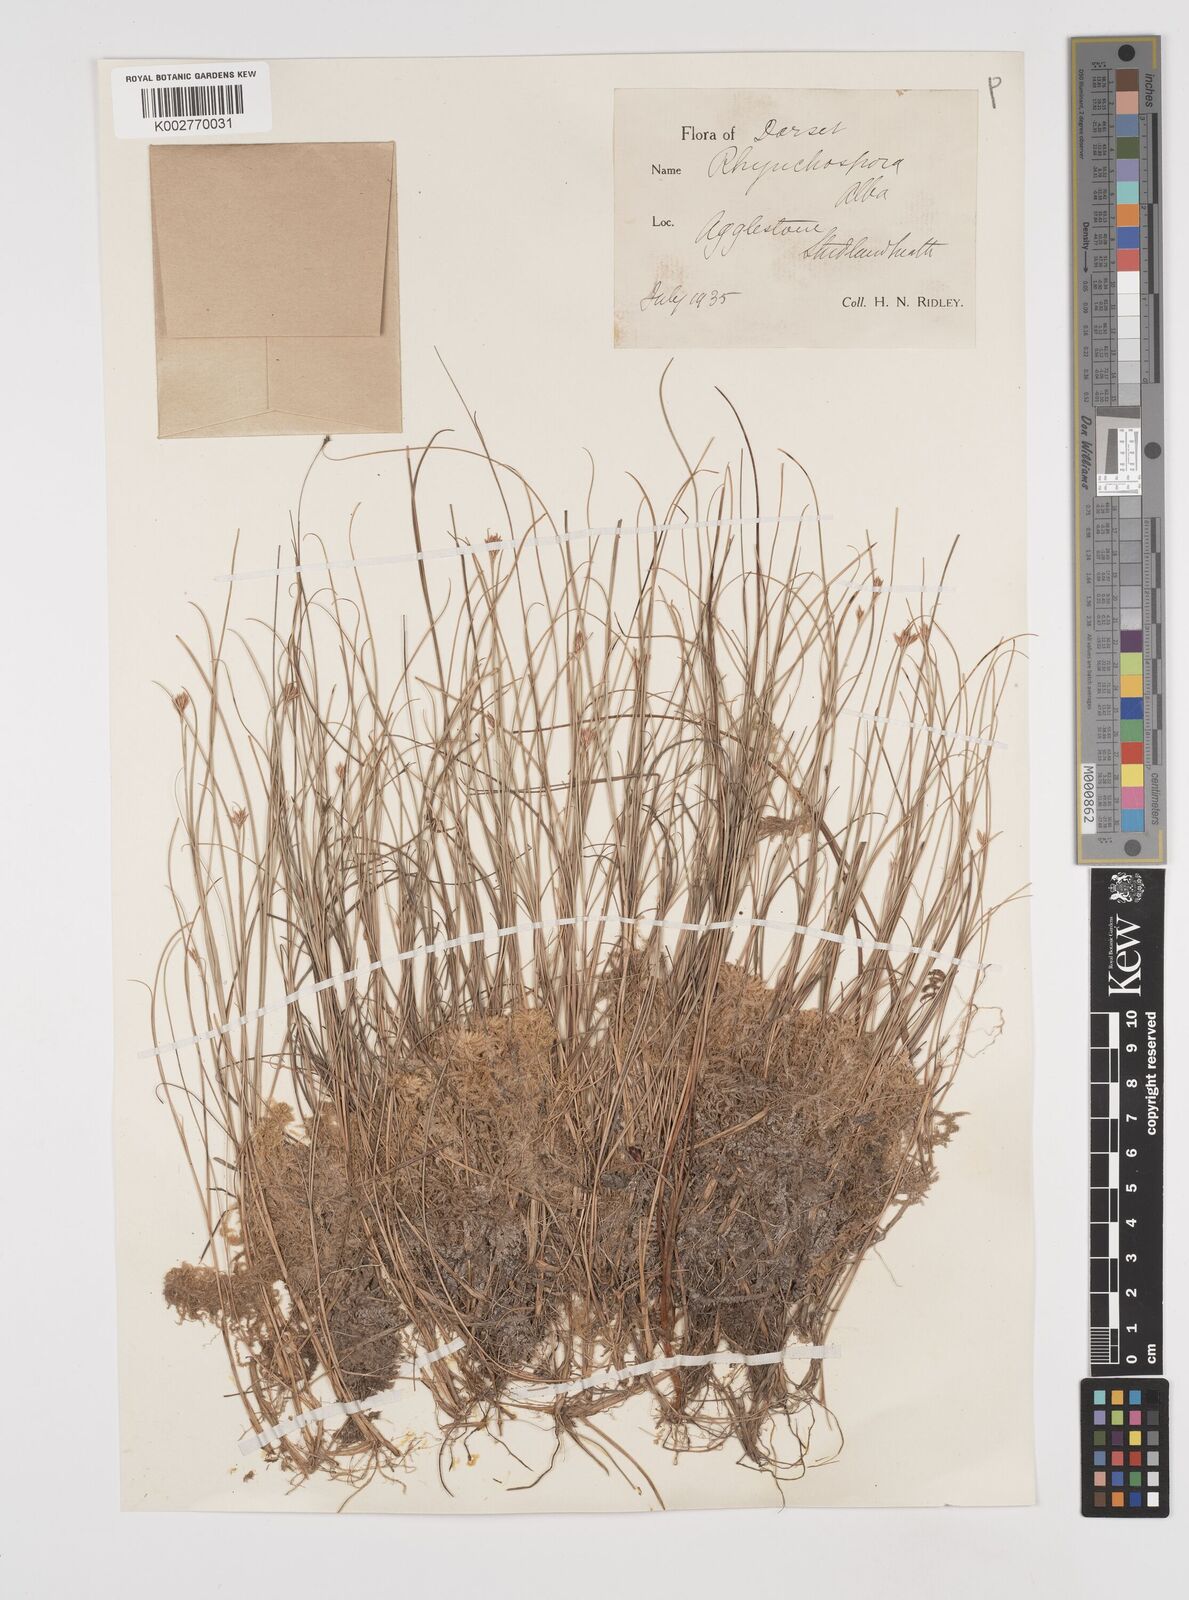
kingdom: Plantae
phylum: Tracheophyta
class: Liliopsida
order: Poales
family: Cyperaceae
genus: Rhynchospora
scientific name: Rhynchospora alba
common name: White beak-sedge
